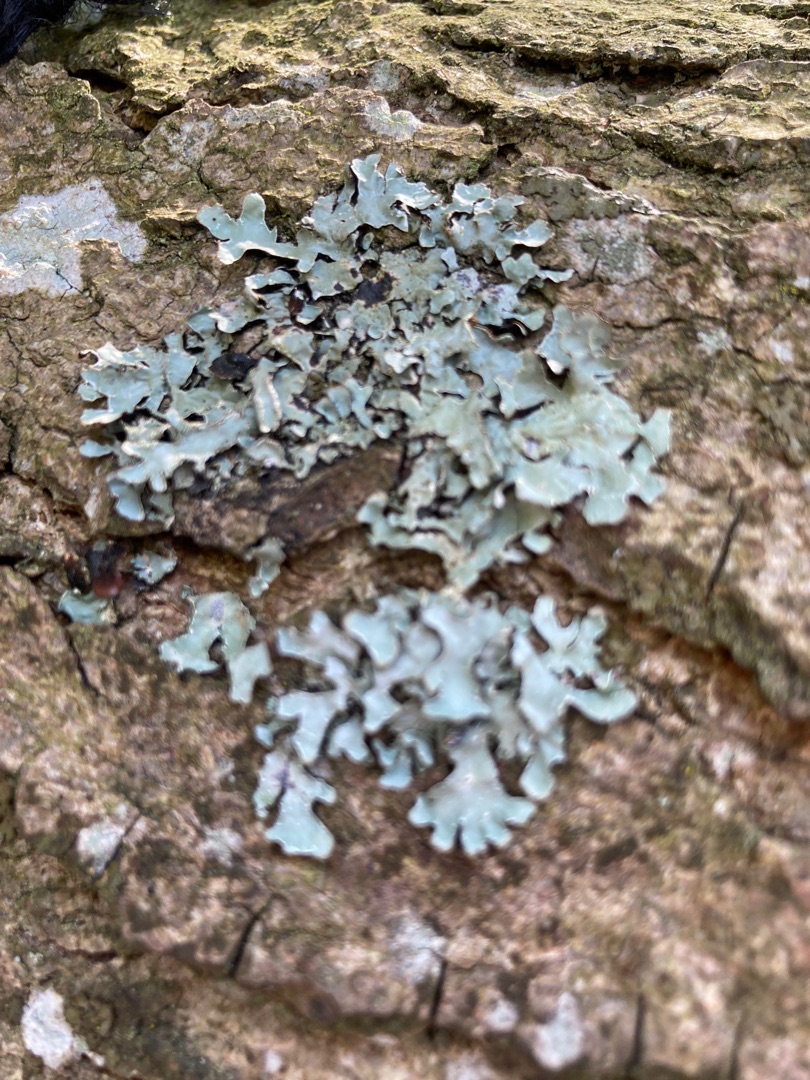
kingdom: Fungi
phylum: Ascomycota
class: Lecanoromycetes
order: Lecanorales
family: Parmeliaceae
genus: Parmelia
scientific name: Parmelia sulcata
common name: Rynket skållav
